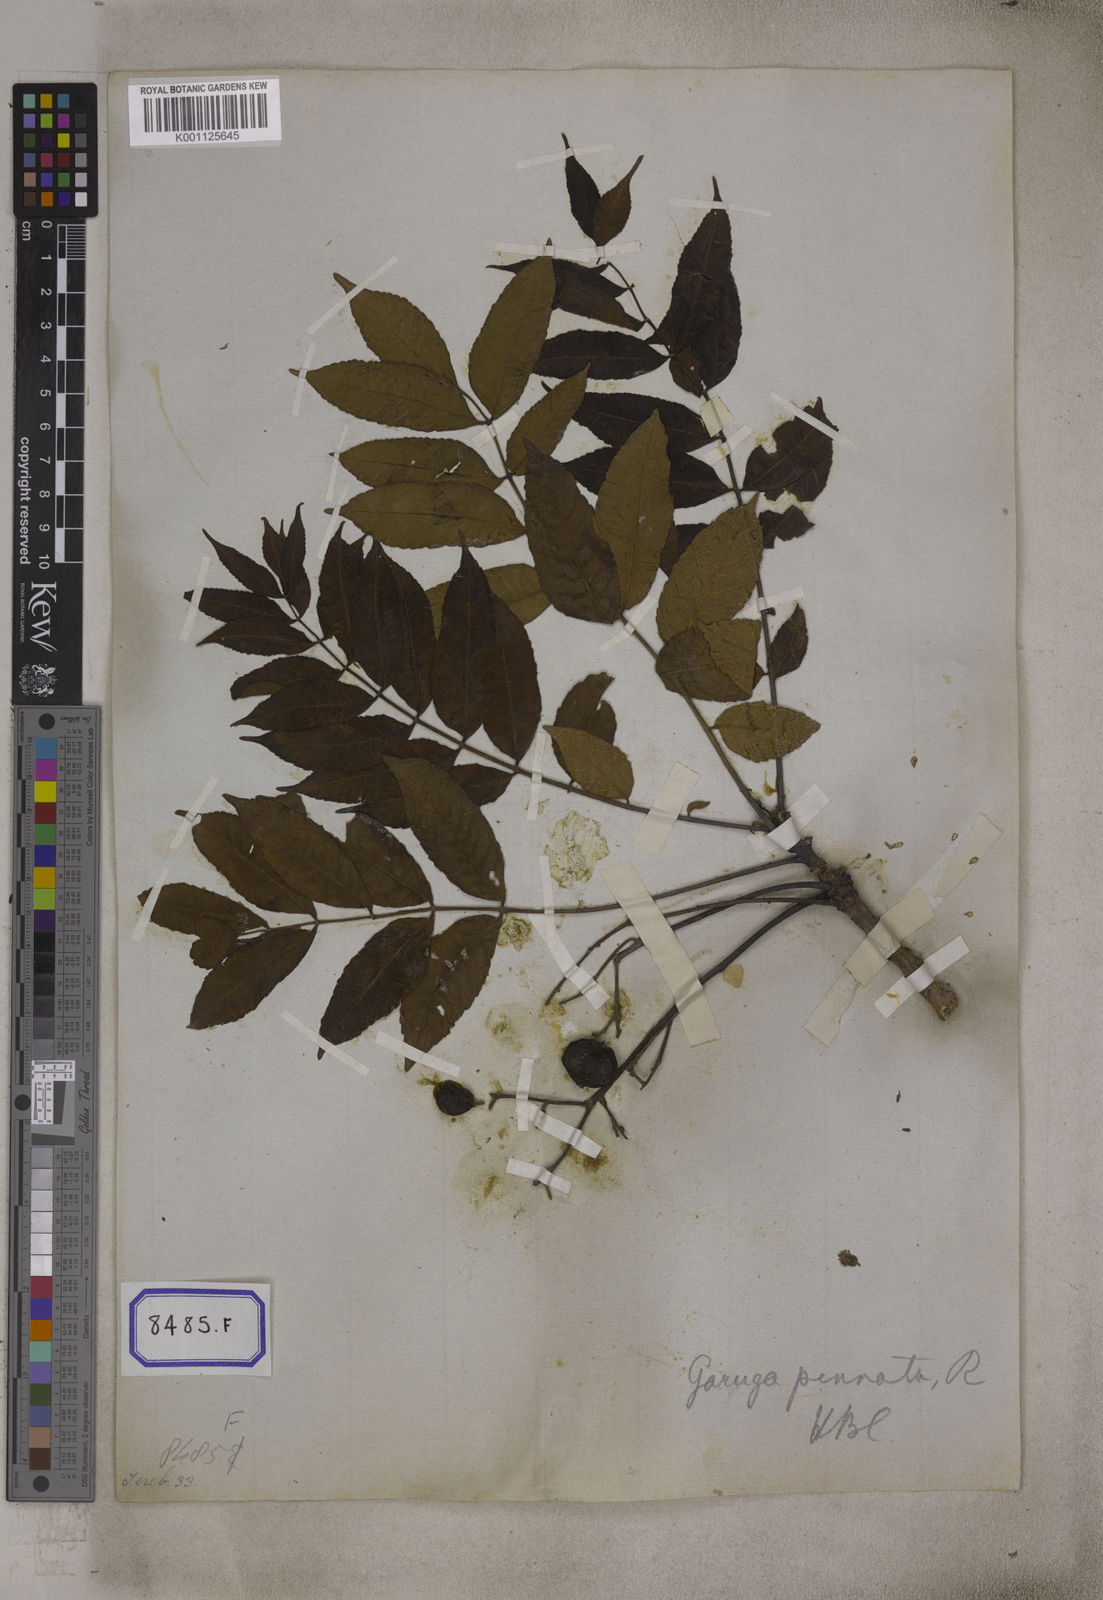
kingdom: Plantae
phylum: Tracheophyta
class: Magnoliopsida
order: Sapindales
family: Burseraceae
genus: Garuga
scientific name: Garuga pinnata
